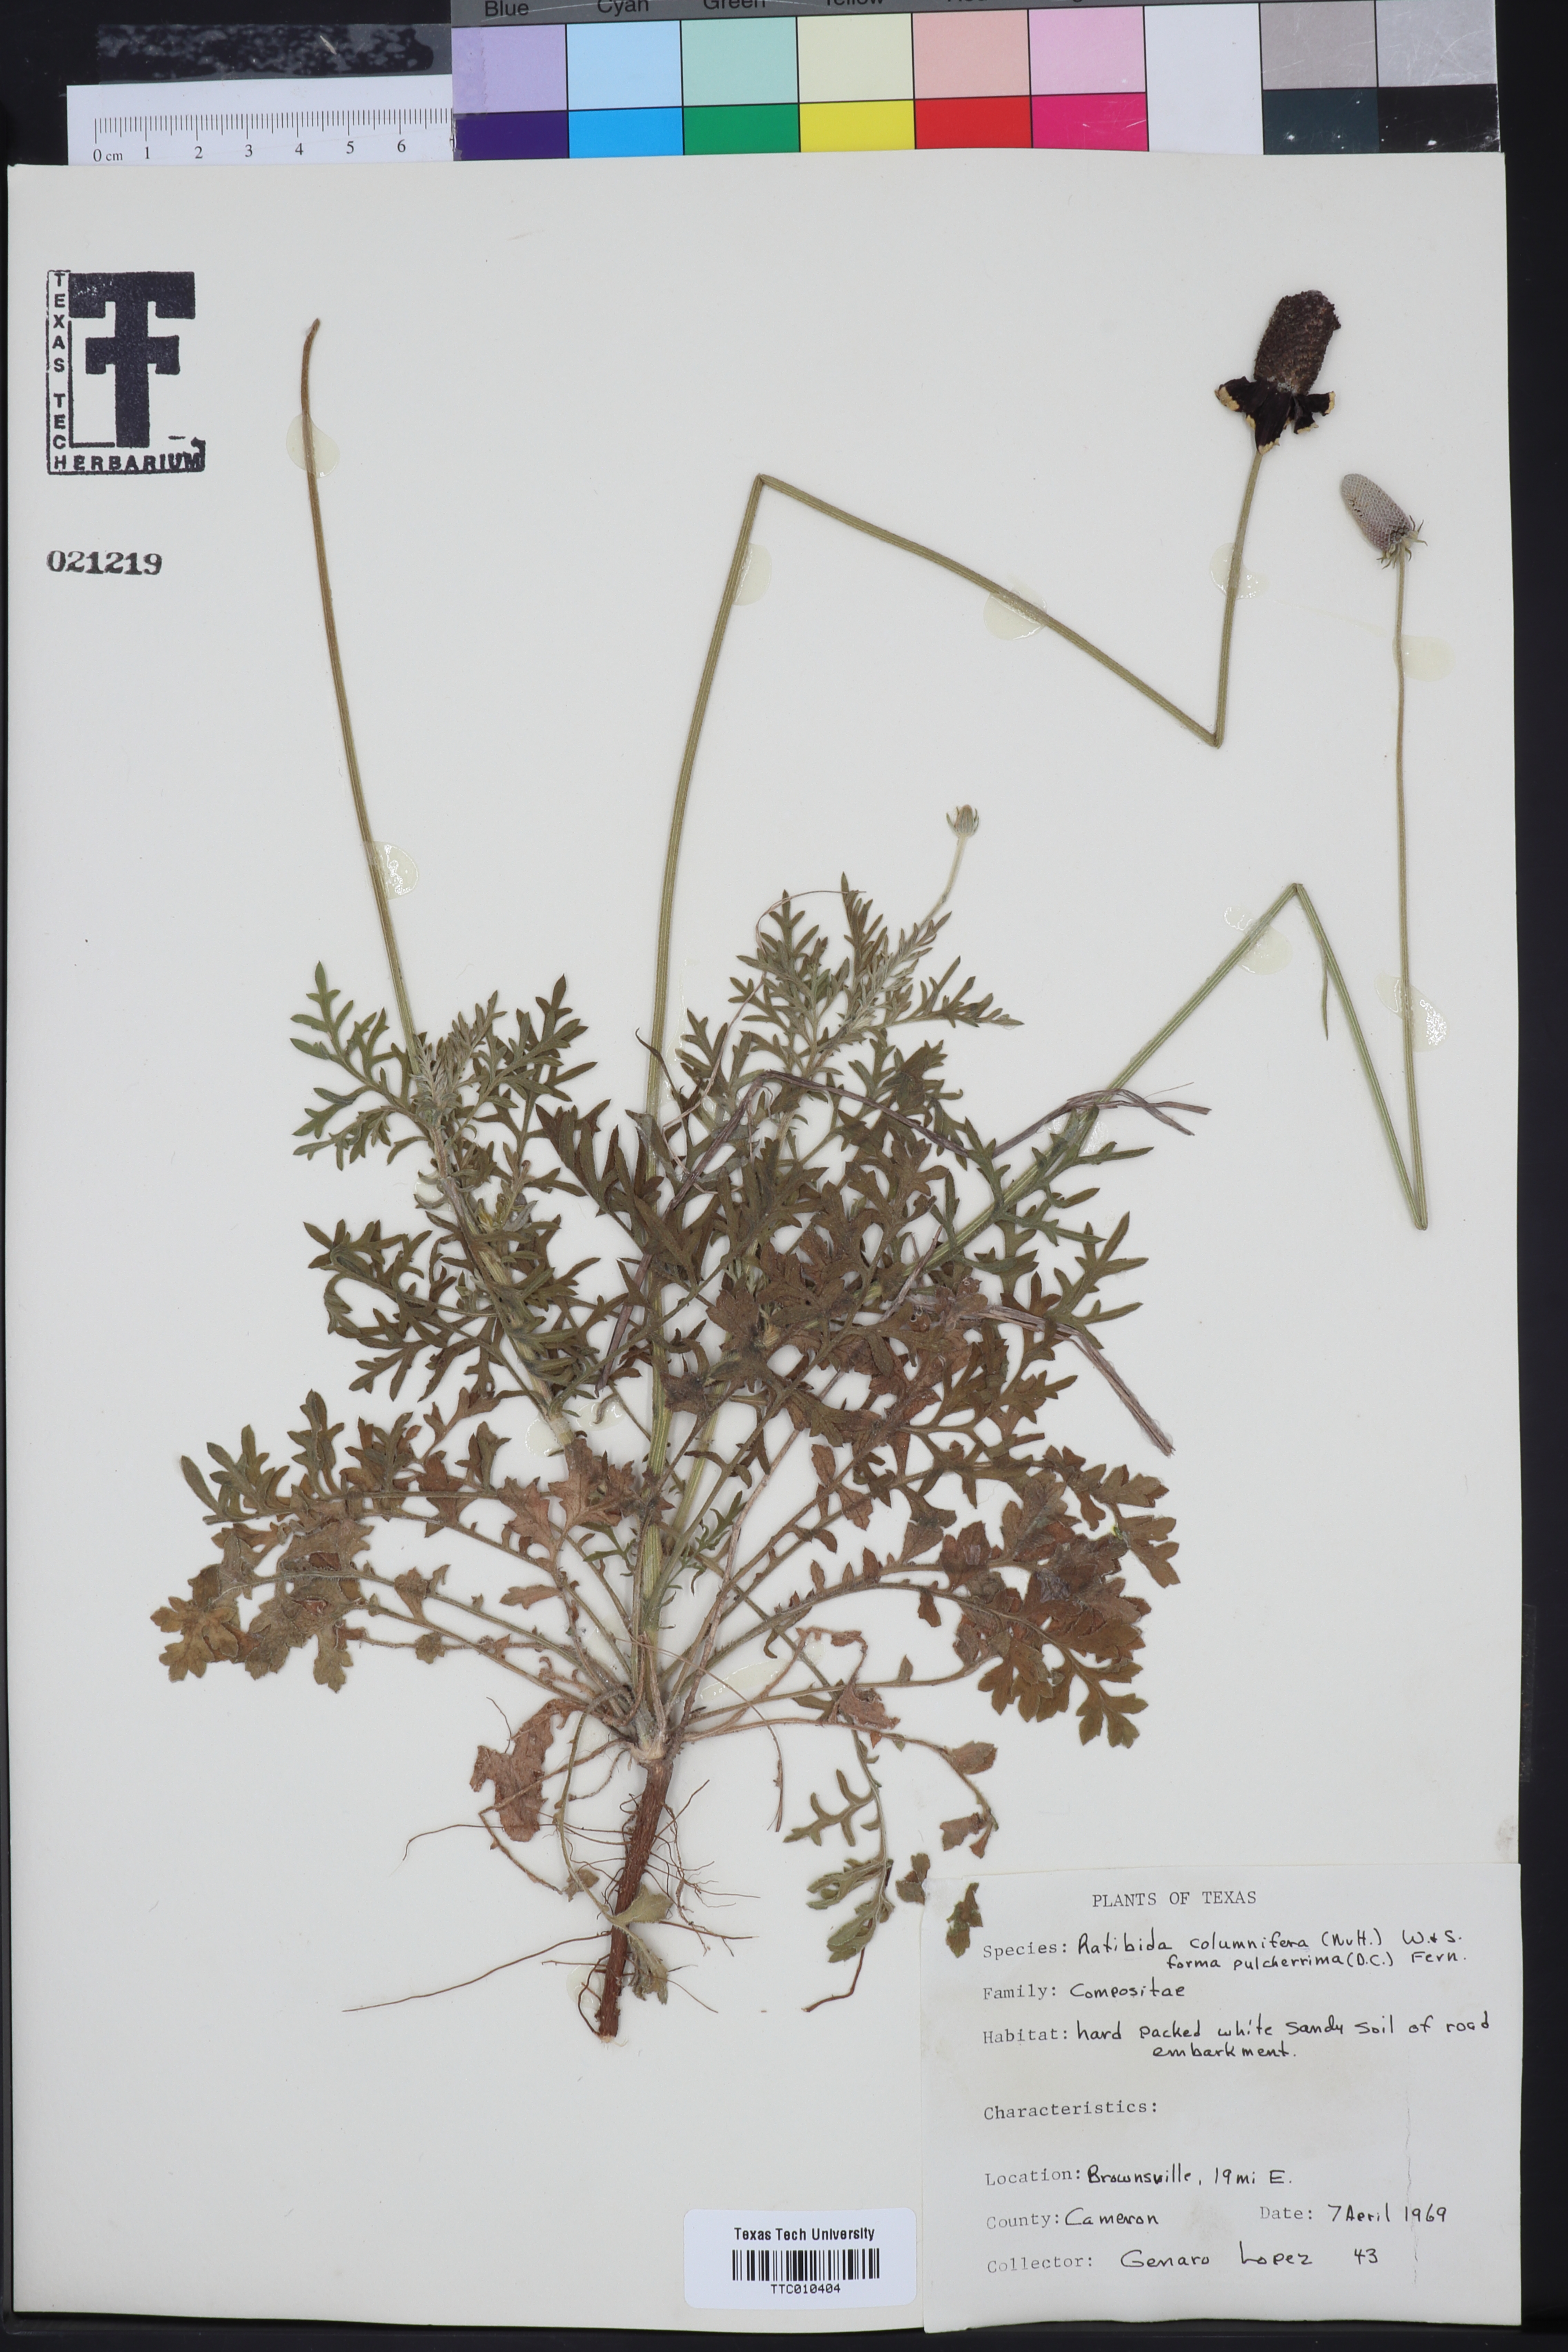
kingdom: Plantae
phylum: Tracheophyta
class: Magnoliopsida
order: Asterales
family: Asteraceae
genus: Ratibida
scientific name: Ratibida columnifera
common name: Prairie coneflower
